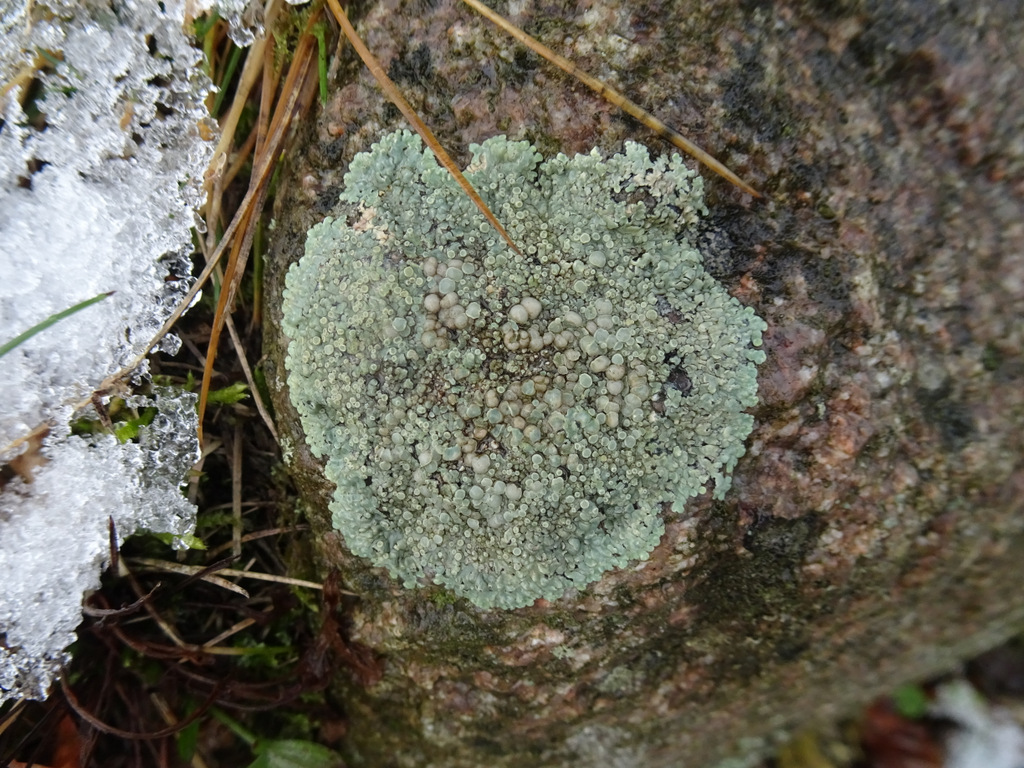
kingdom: Fungi
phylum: Ascomycota
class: Lecanoromycetes
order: Lecanorales
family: Lecanoraceae
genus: Protoparmeliopsis
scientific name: Protoparmeliopsis muralis
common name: randfliget kantskivelav
